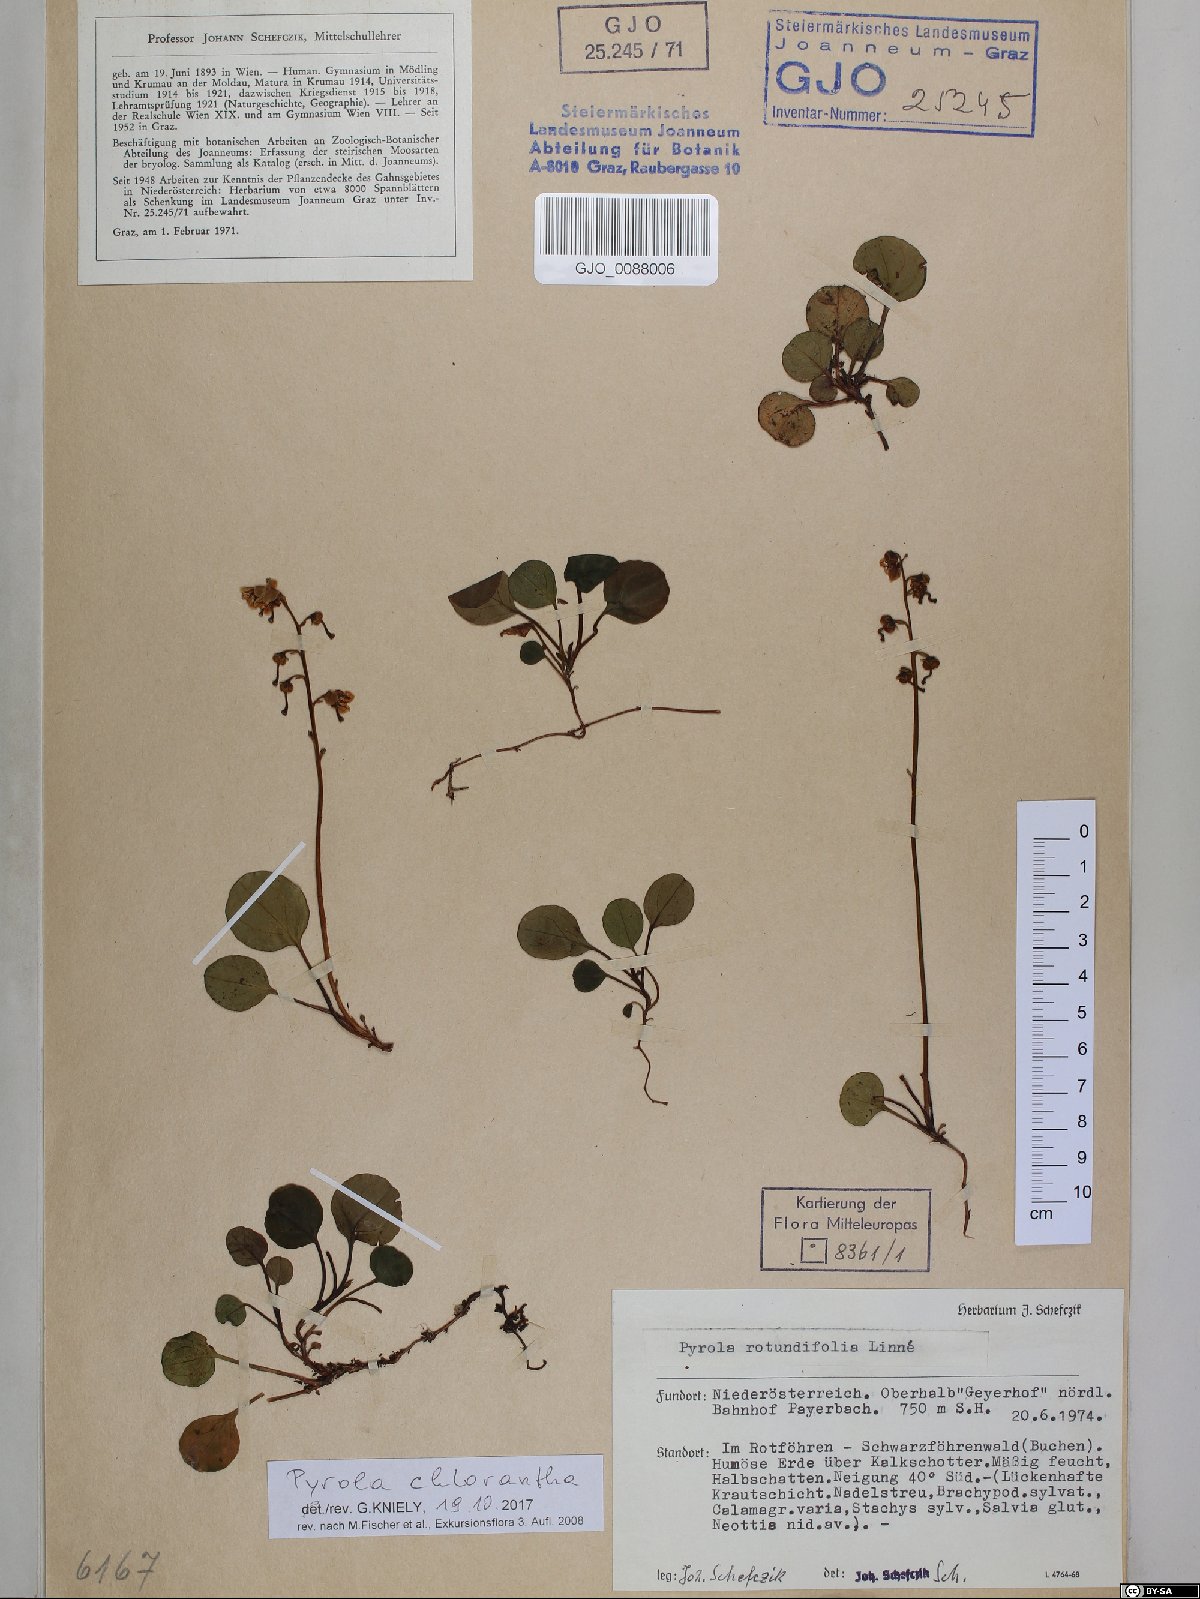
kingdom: Plantae
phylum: Tracheophyta
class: Magnoliopsida
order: Ericales
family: Ericaceae
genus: Pyrola
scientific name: Pyrola chlorantha
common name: Green wintergreen
